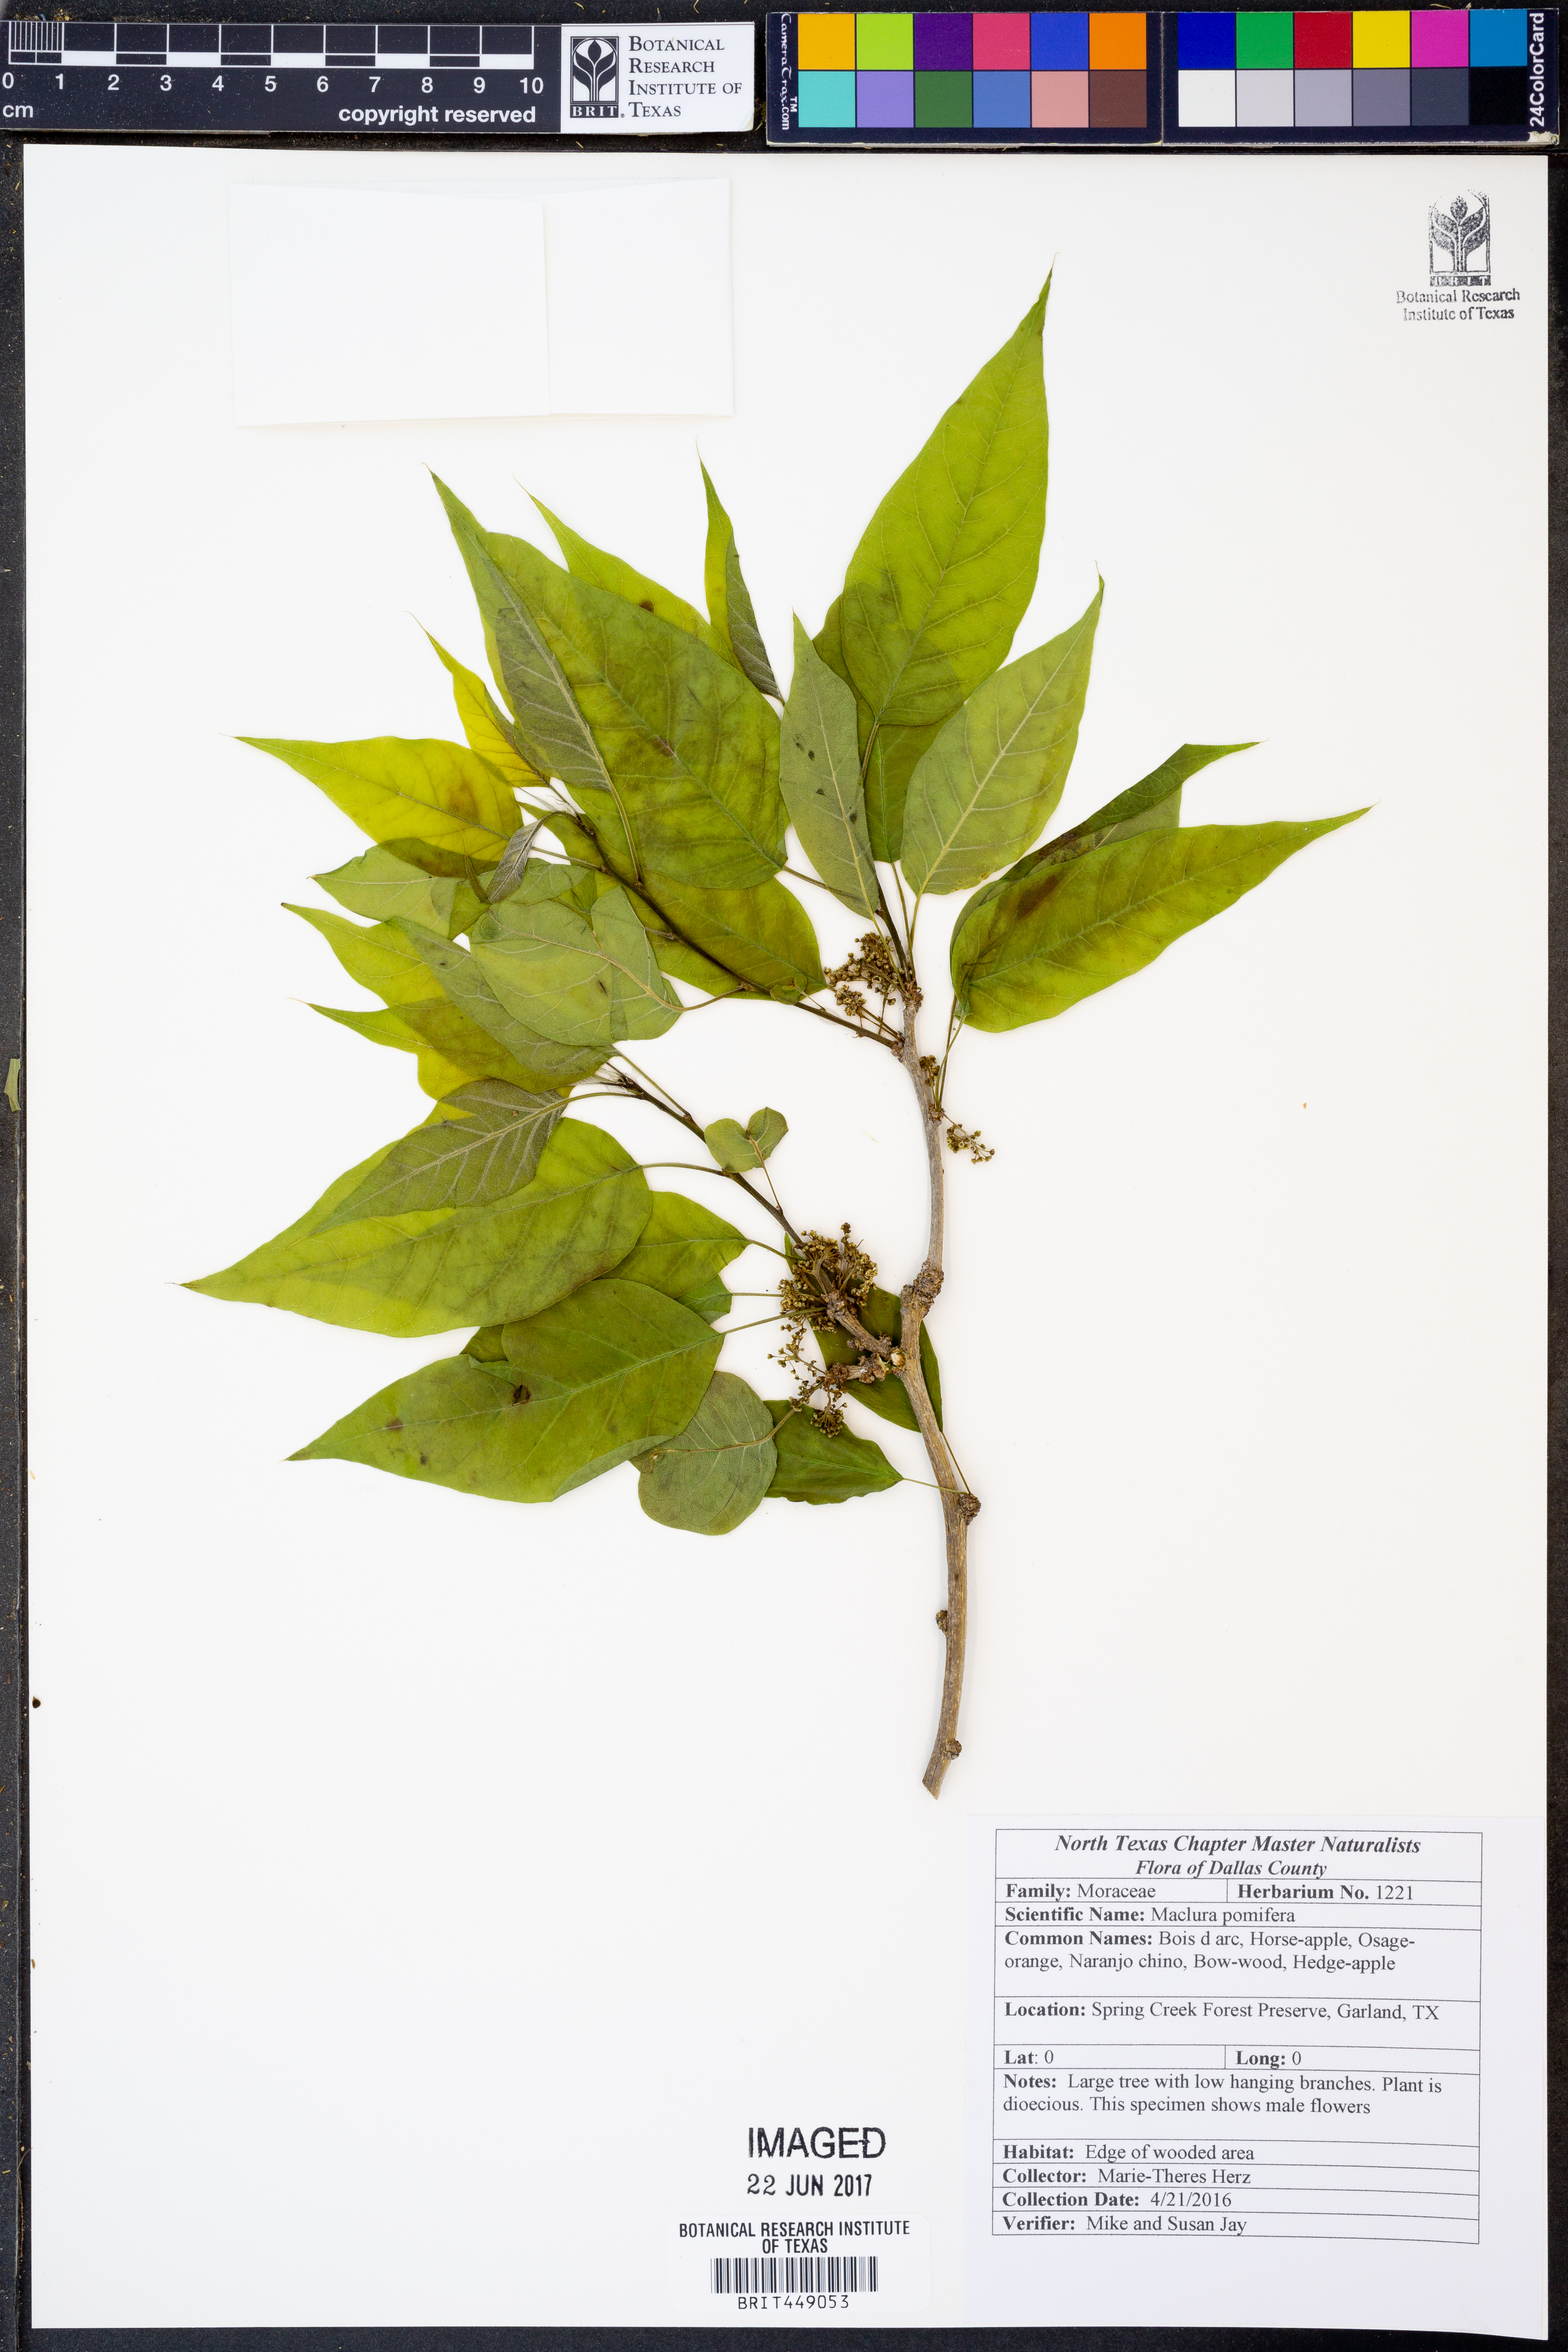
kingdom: Plantae
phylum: Tracheophyta
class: Magnoliopsida
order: Rosales
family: Moraceae
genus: Maclura
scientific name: Maclura pomifera
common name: Osage-orange
